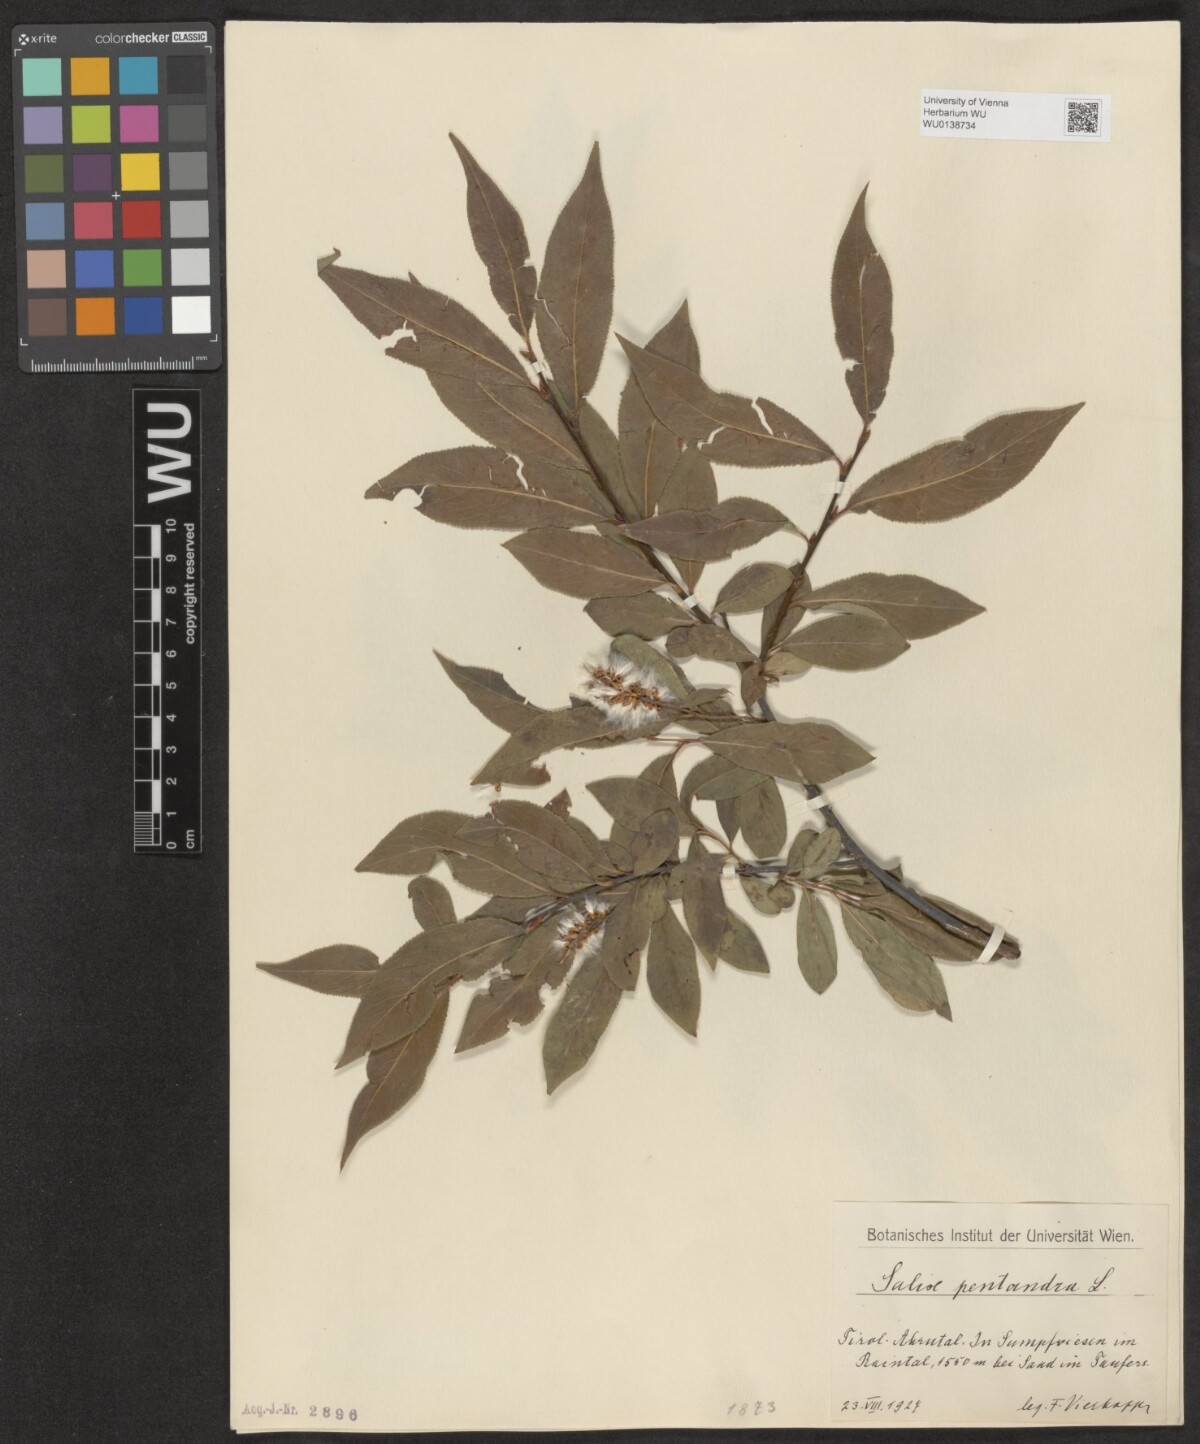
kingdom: Plantae
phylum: Tracheophyta
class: Magnoliopsida
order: Malpighiales
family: Salicaceae
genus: Salix
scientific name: Salix pentandra
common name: Bay willow
